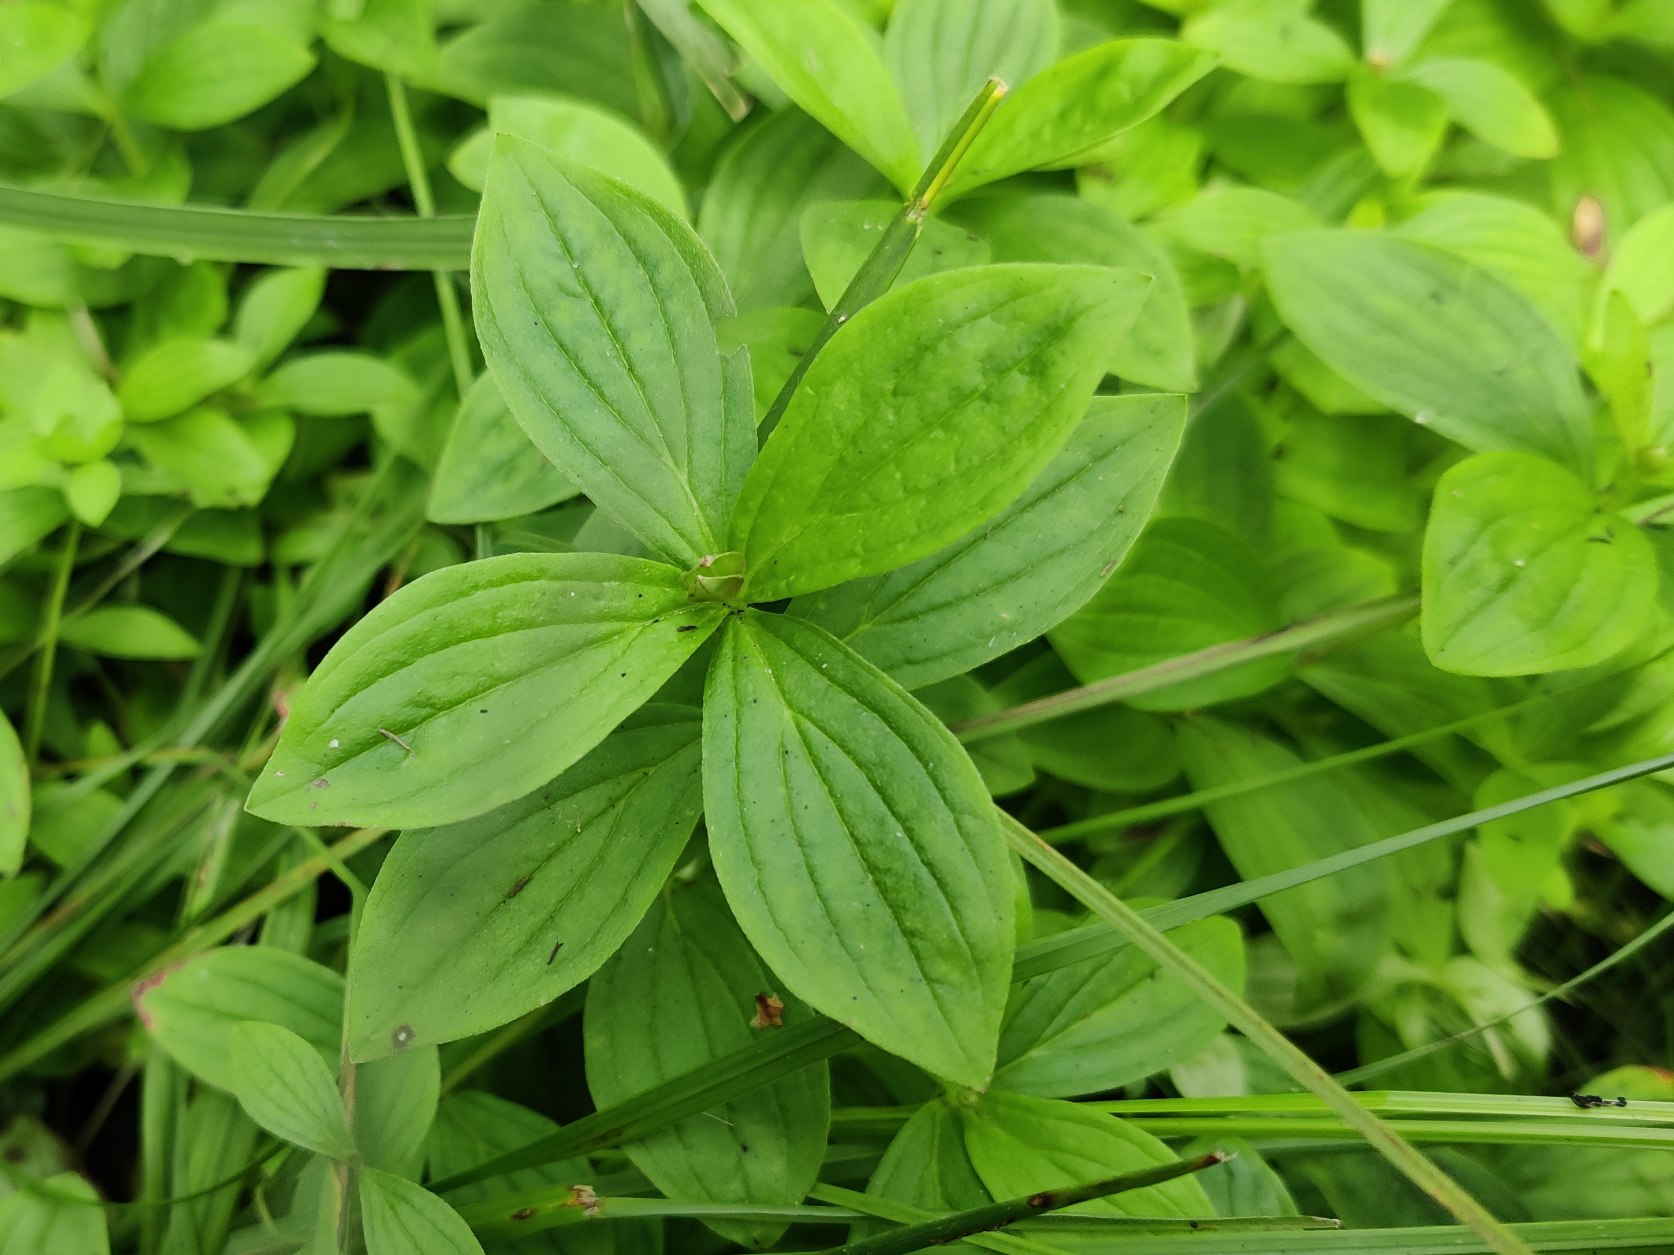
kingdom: Plantae
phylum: Tracheophyta
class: Magnoliopsida
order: Cornales
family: Cornaceae
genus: Cornus
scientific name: Cornus suecica
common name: Hønsebær
